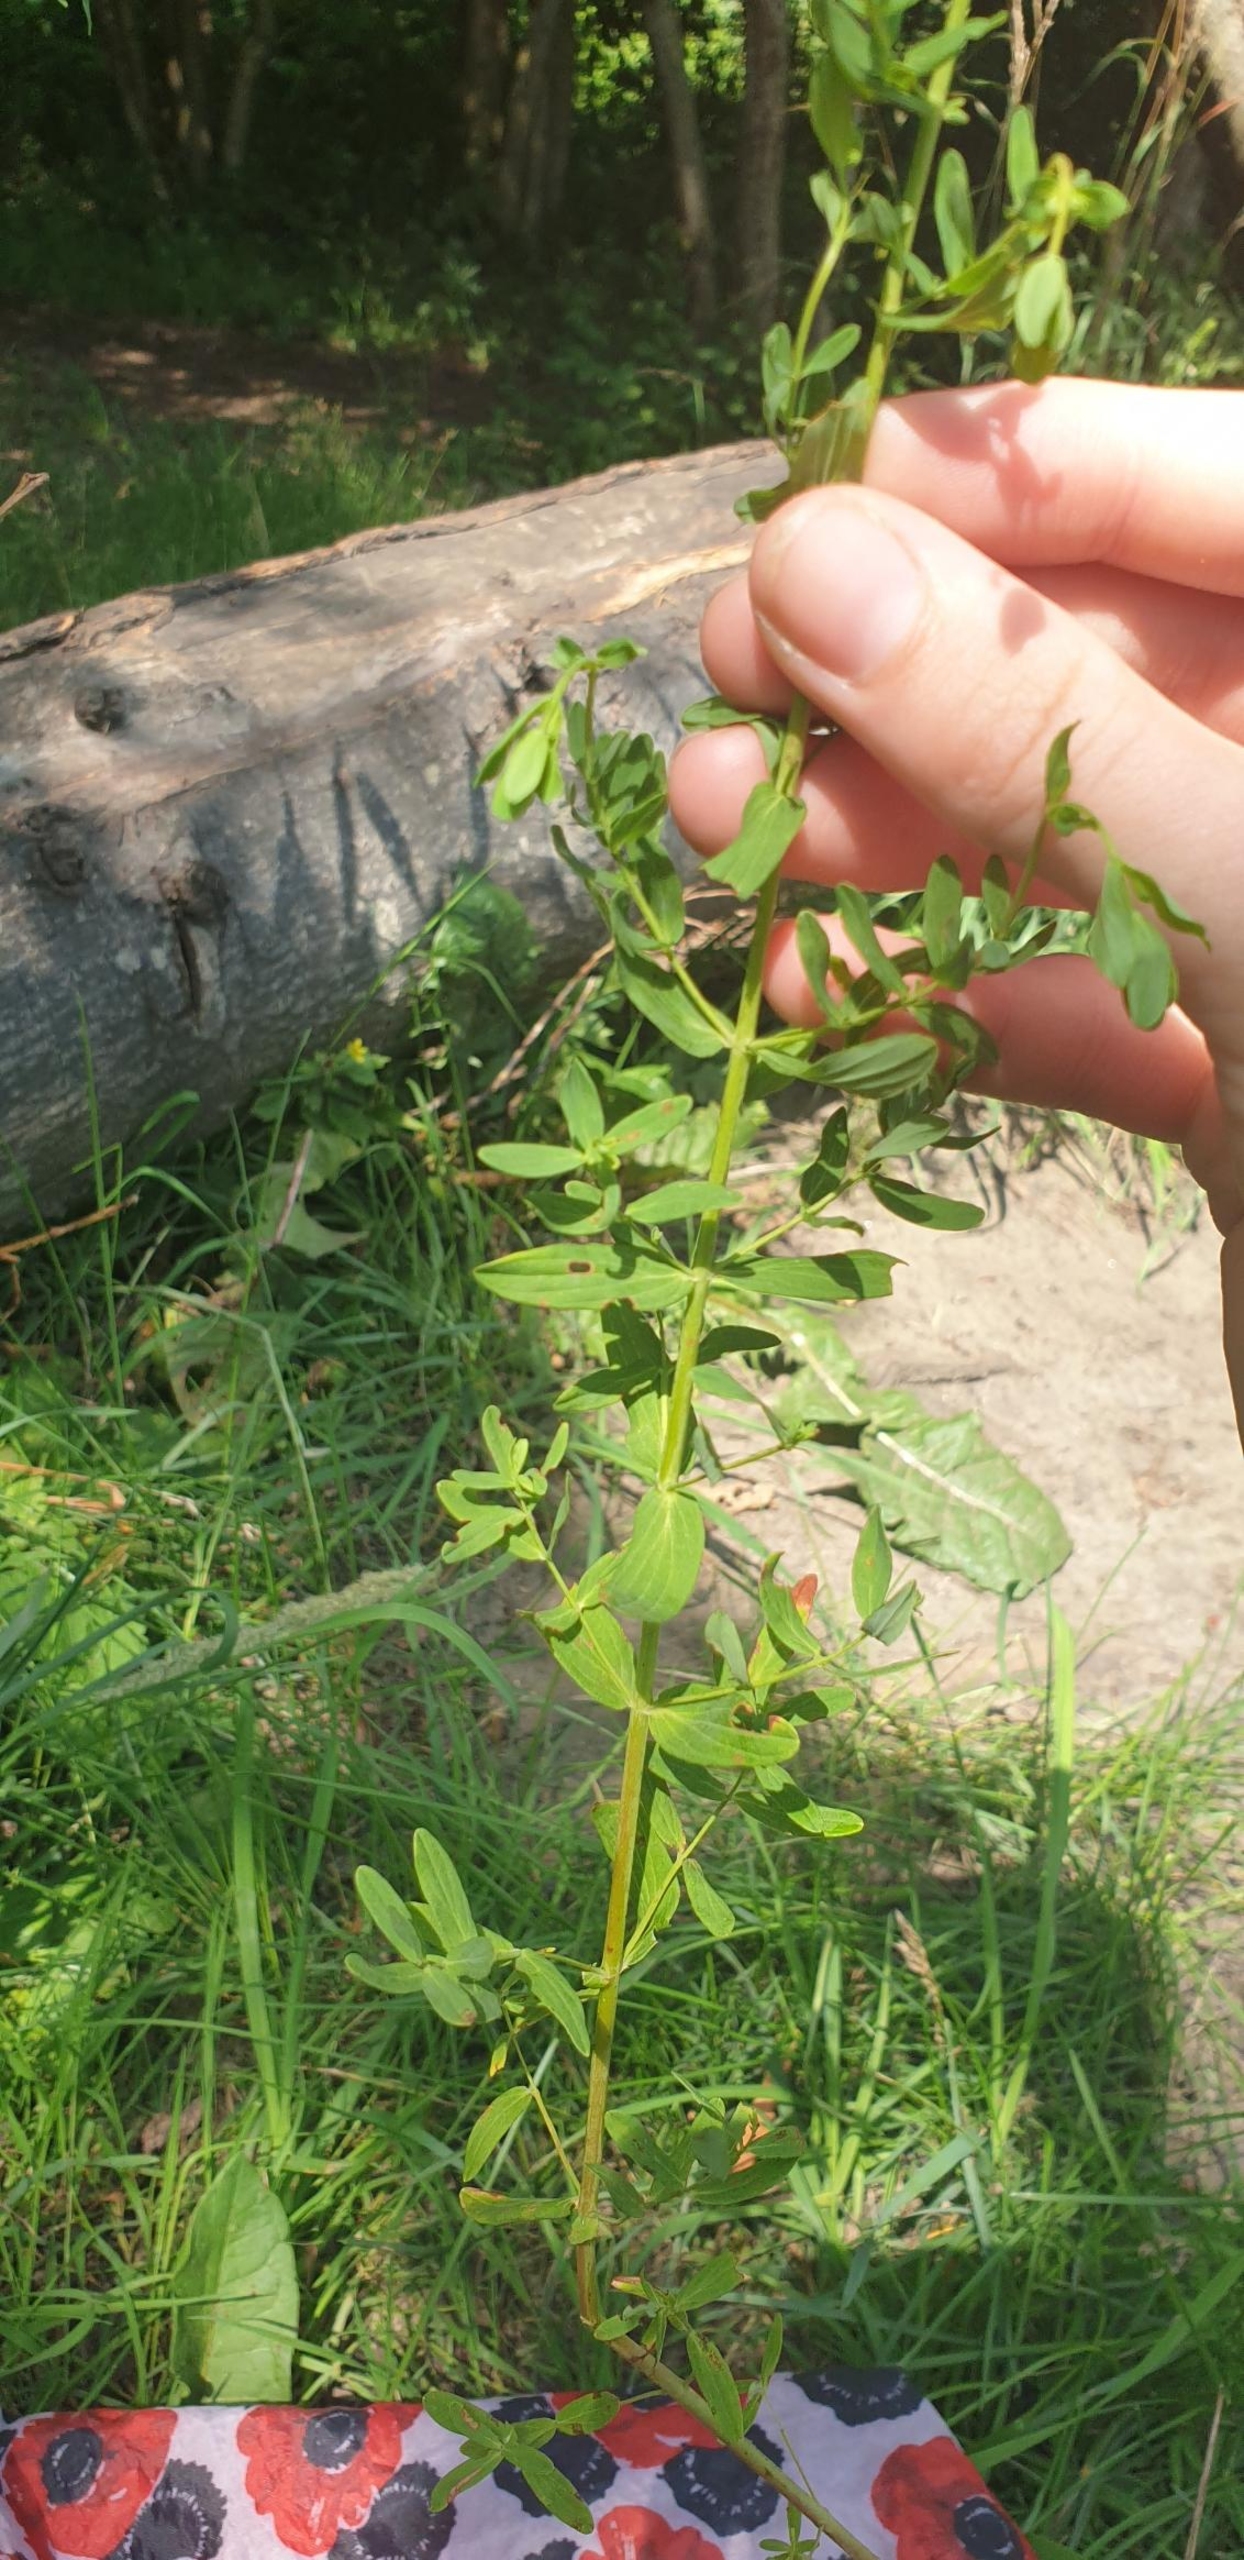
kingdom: Plantae
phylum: Tracheophyta
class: Magnoliopsida
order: Malpighiales
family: Hypericaceae
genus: Hypericum
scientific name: Hypericum perforatum
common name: Prikbladet perikon
